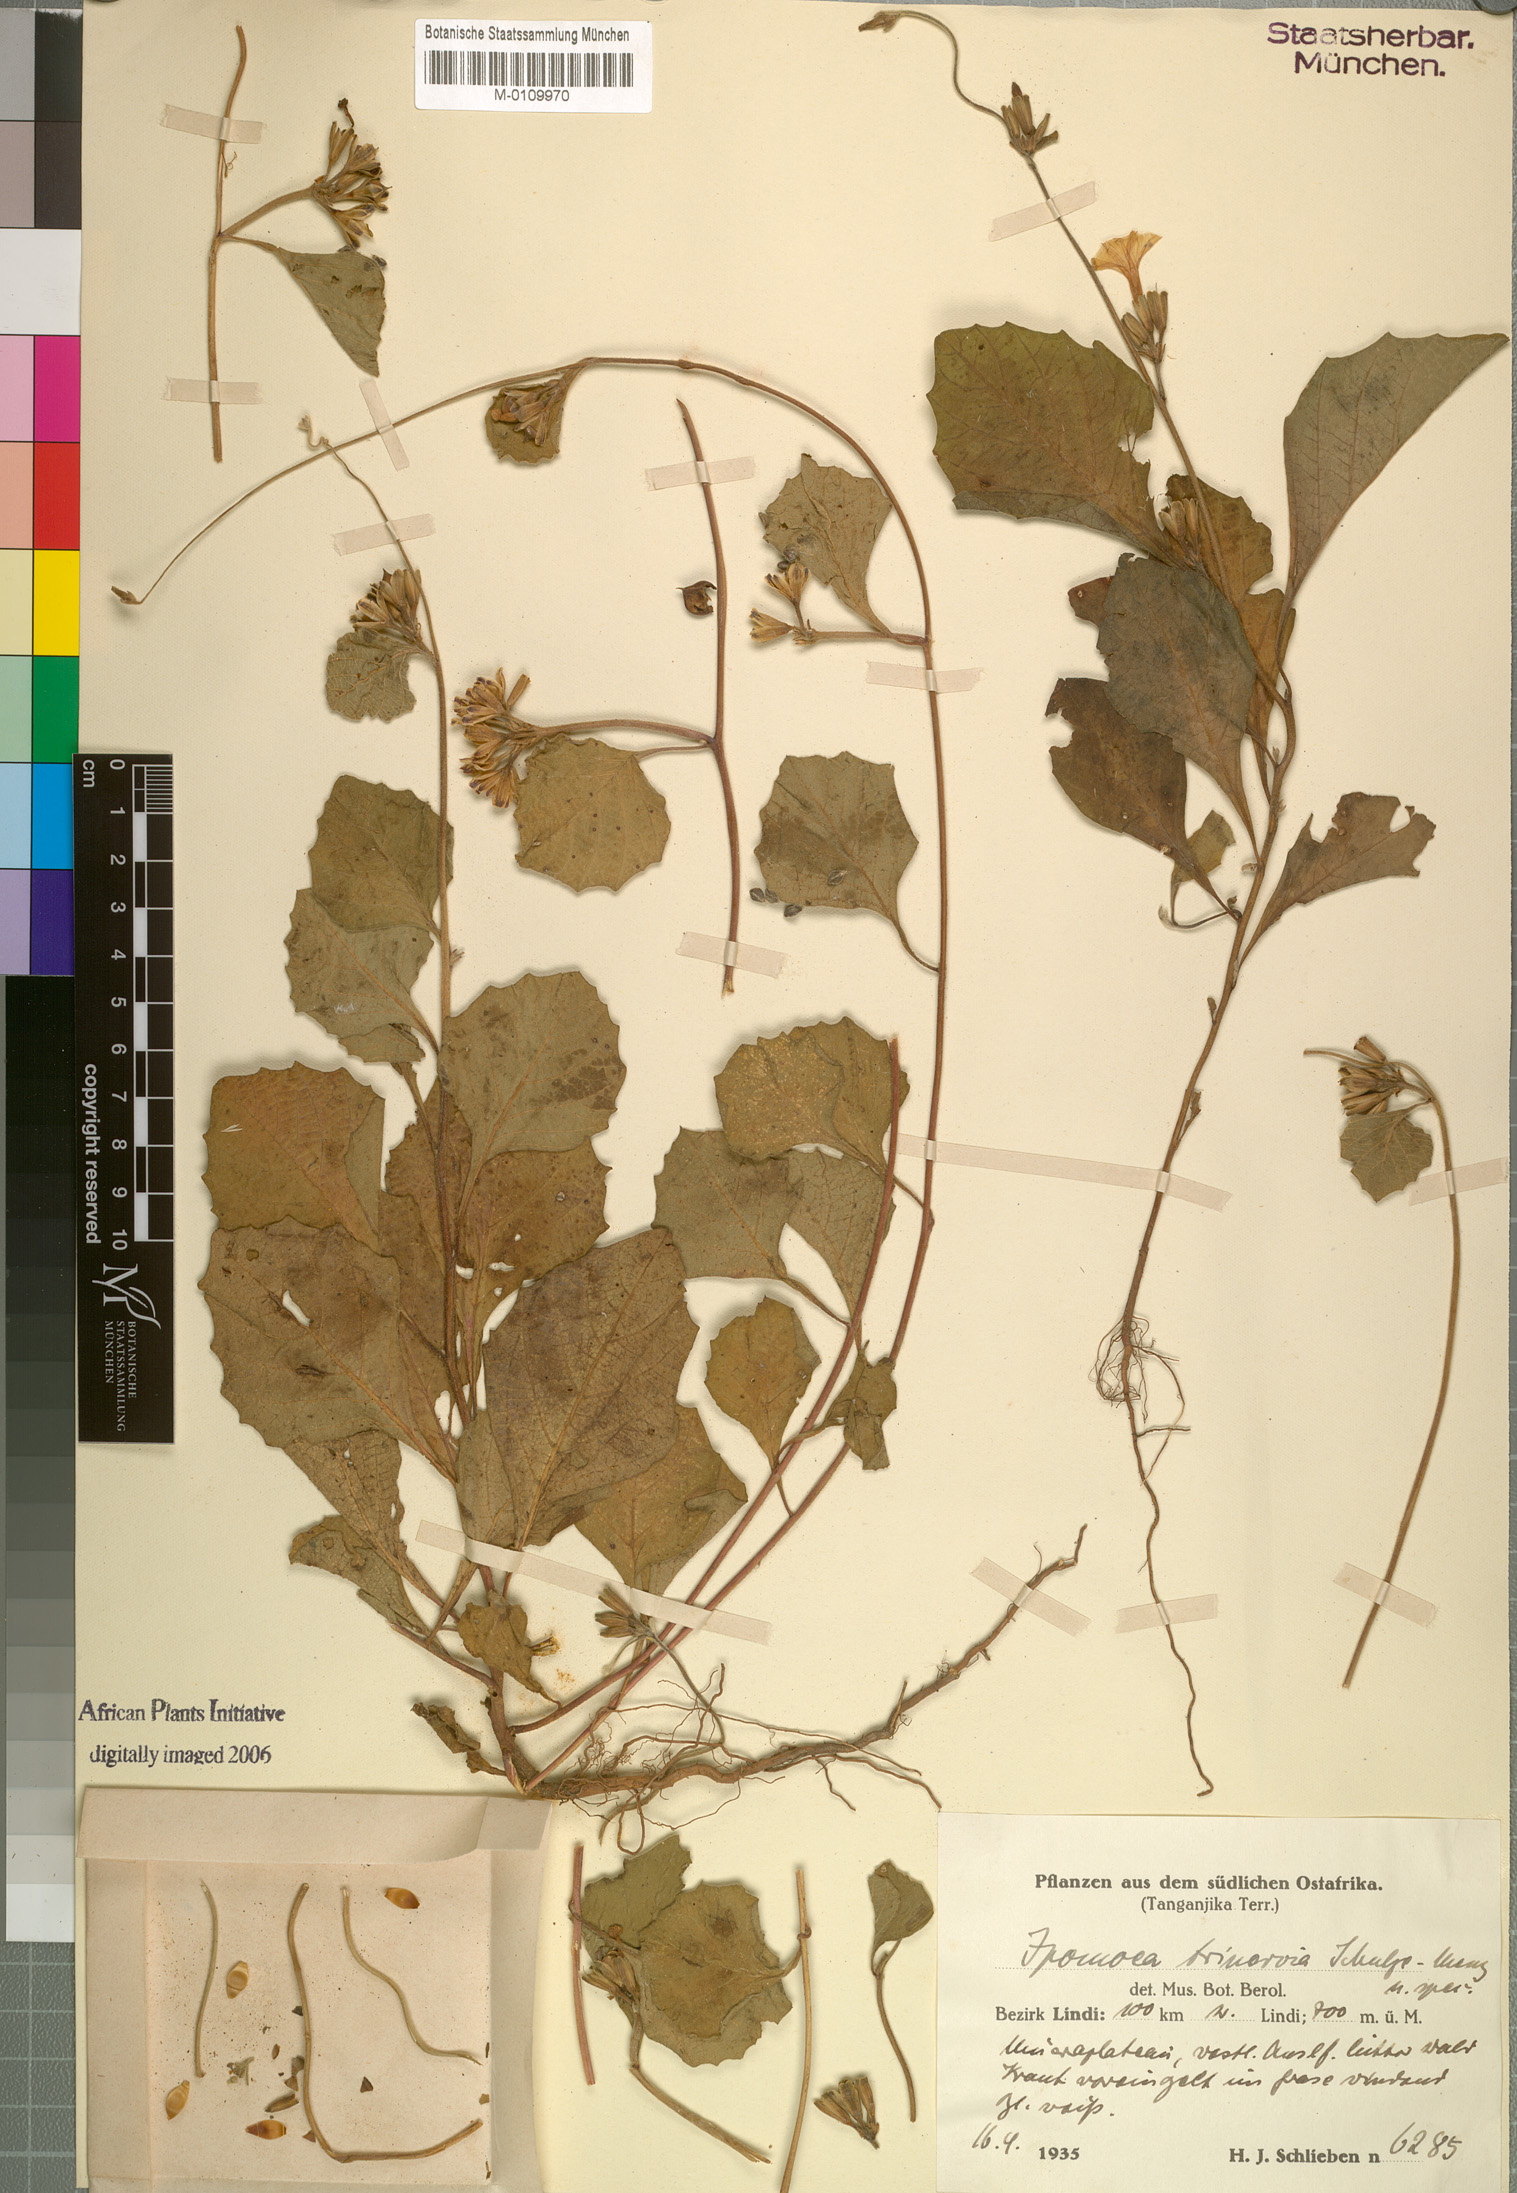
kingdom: Plantae
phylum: Tracheophyta
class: Magnoliopsida
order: Solanales
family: Convolvulaceae
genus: Ipomoea
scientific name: Ipomoea trinervia
